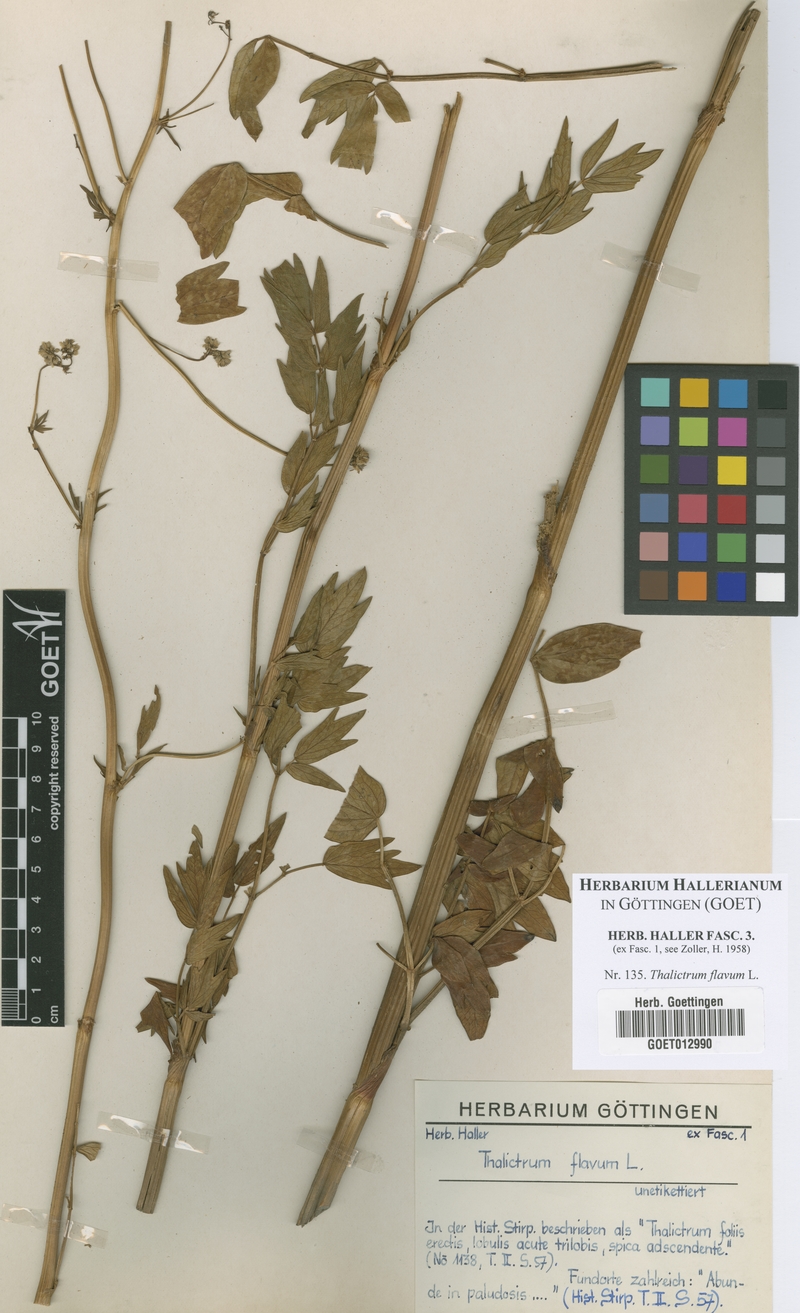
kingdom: Plantae
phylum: Tracheophyta
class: Magnoliopsida
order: Ranunculales
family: Ranunculaceae
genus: Thalictrum
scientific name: Thalictrum flavum
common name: Common meadow-rue
